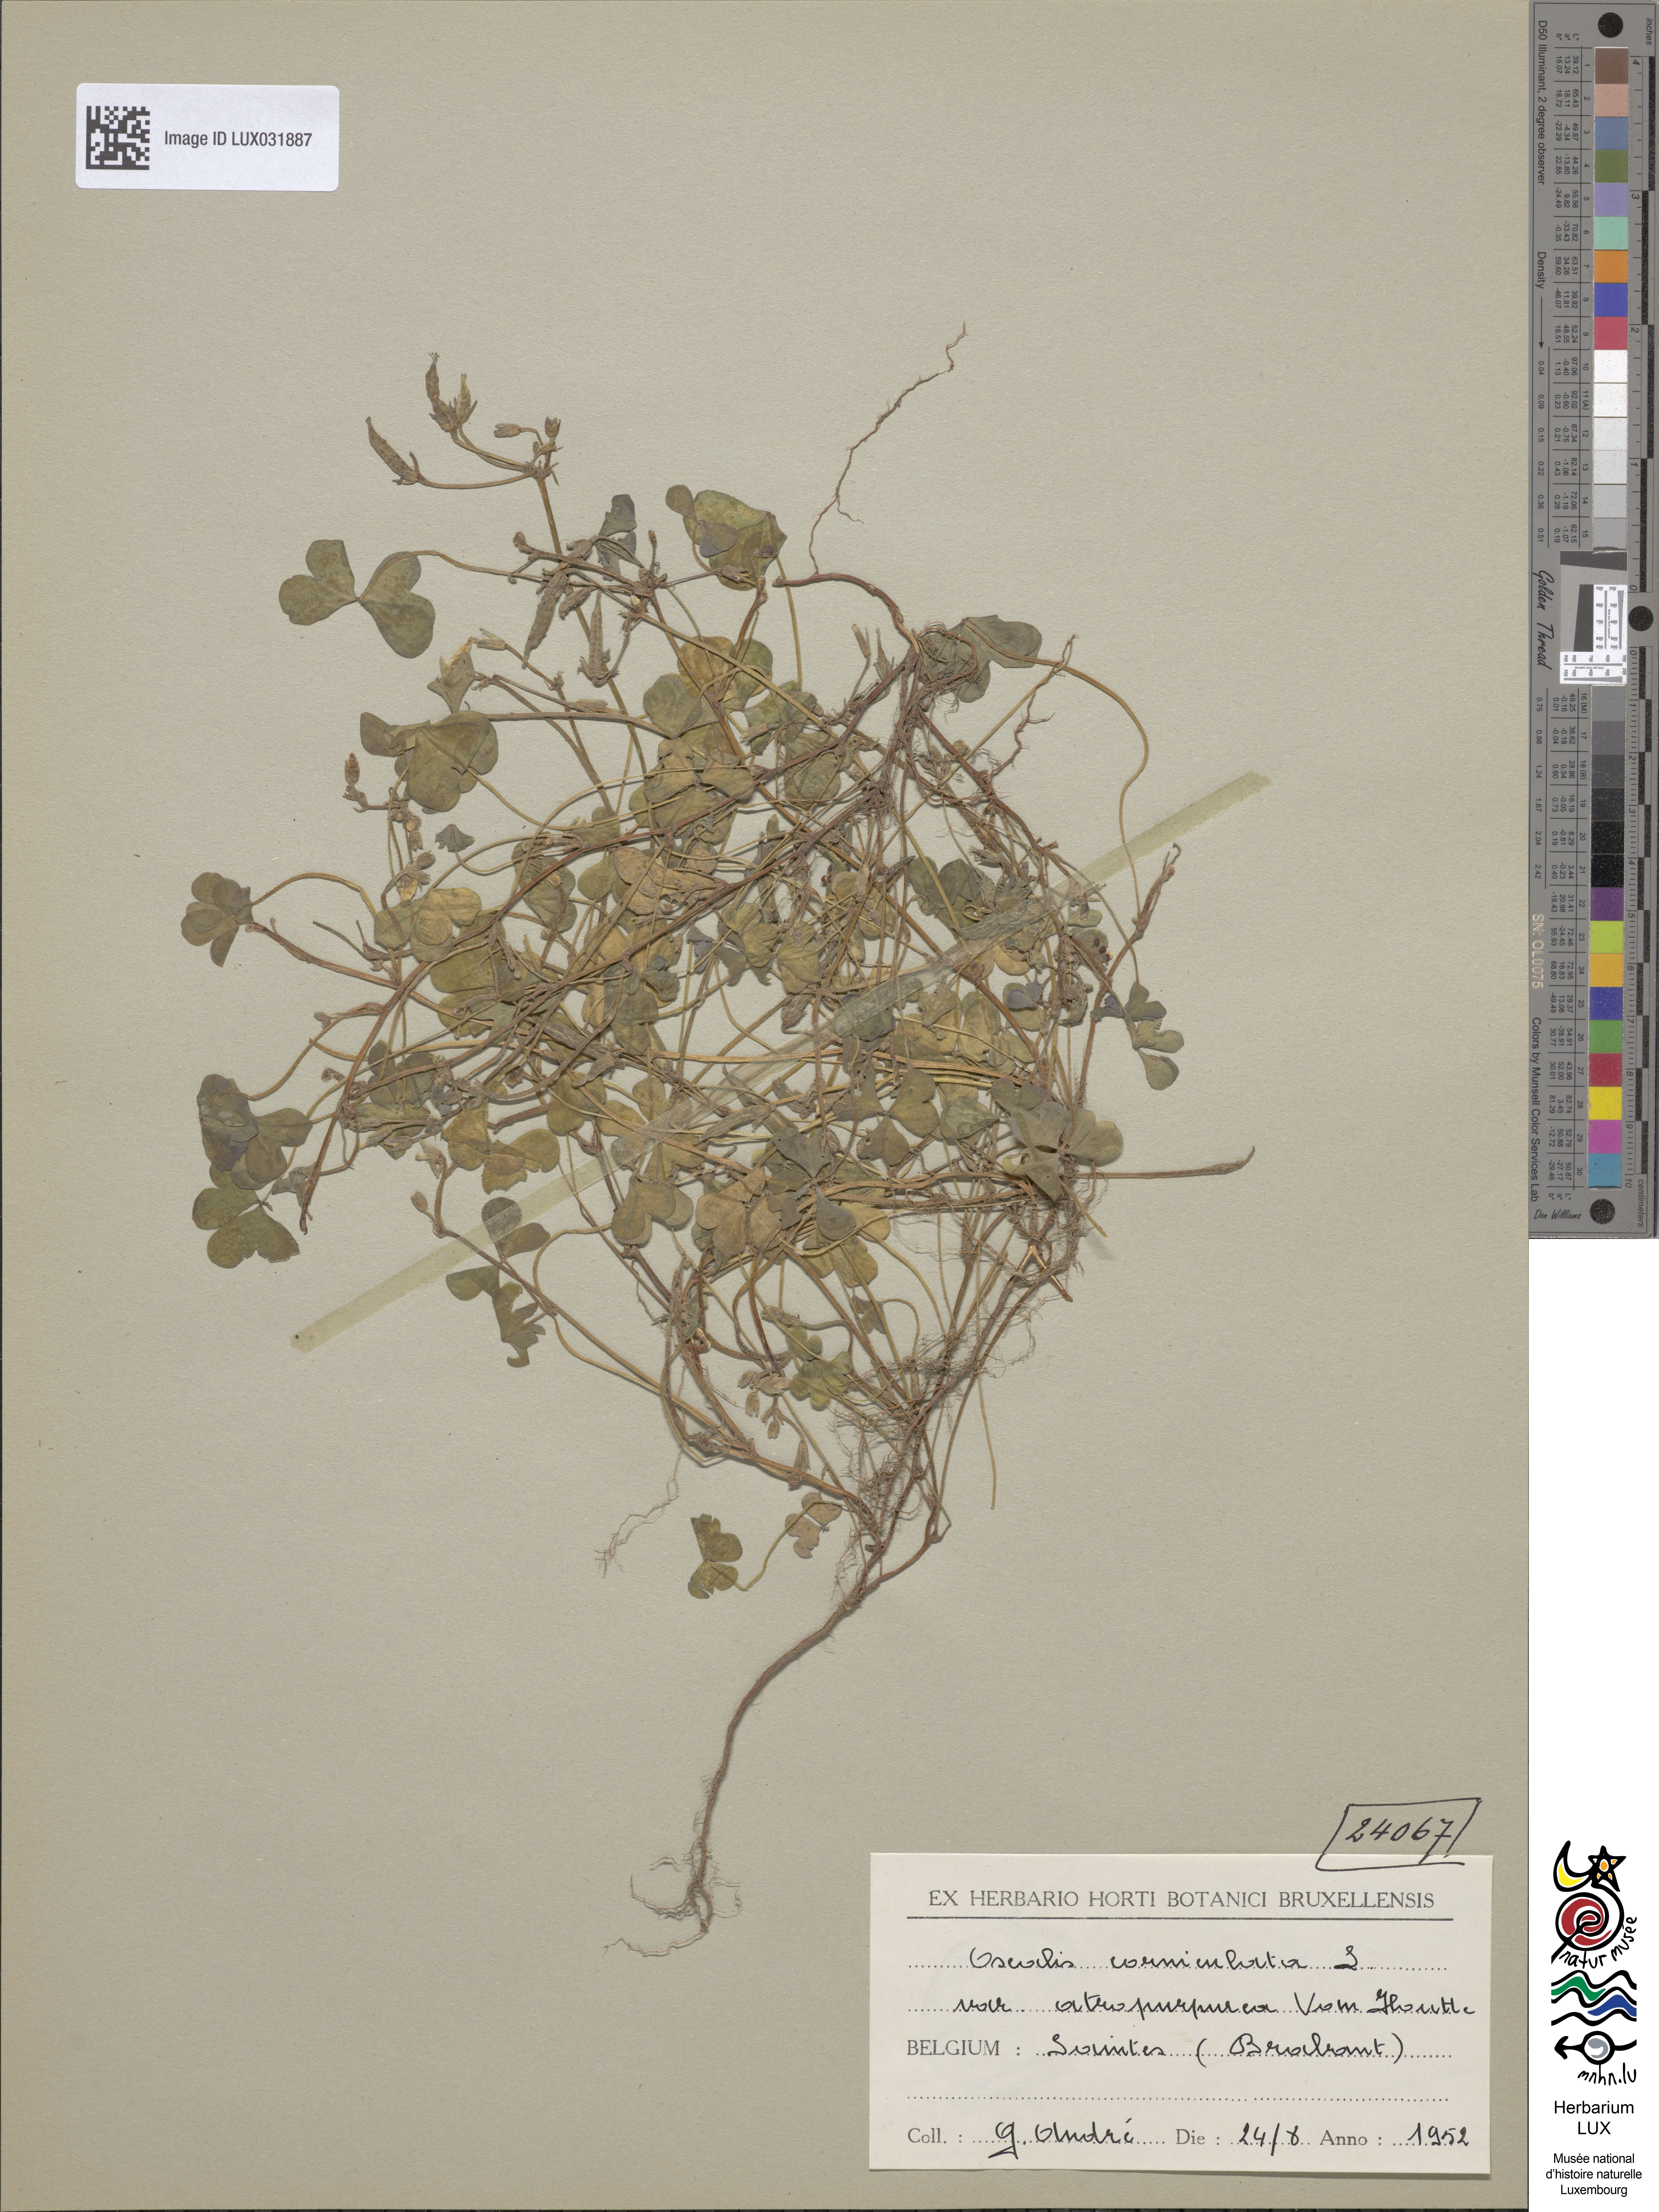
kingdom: Plantae
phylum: Tracheophyta
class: Magnoliopsida
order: Oxalidales
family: Oxalidaceae
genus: Oxalis
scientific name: Oxalis corniculata
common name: Procumbent yellow-sorrel
